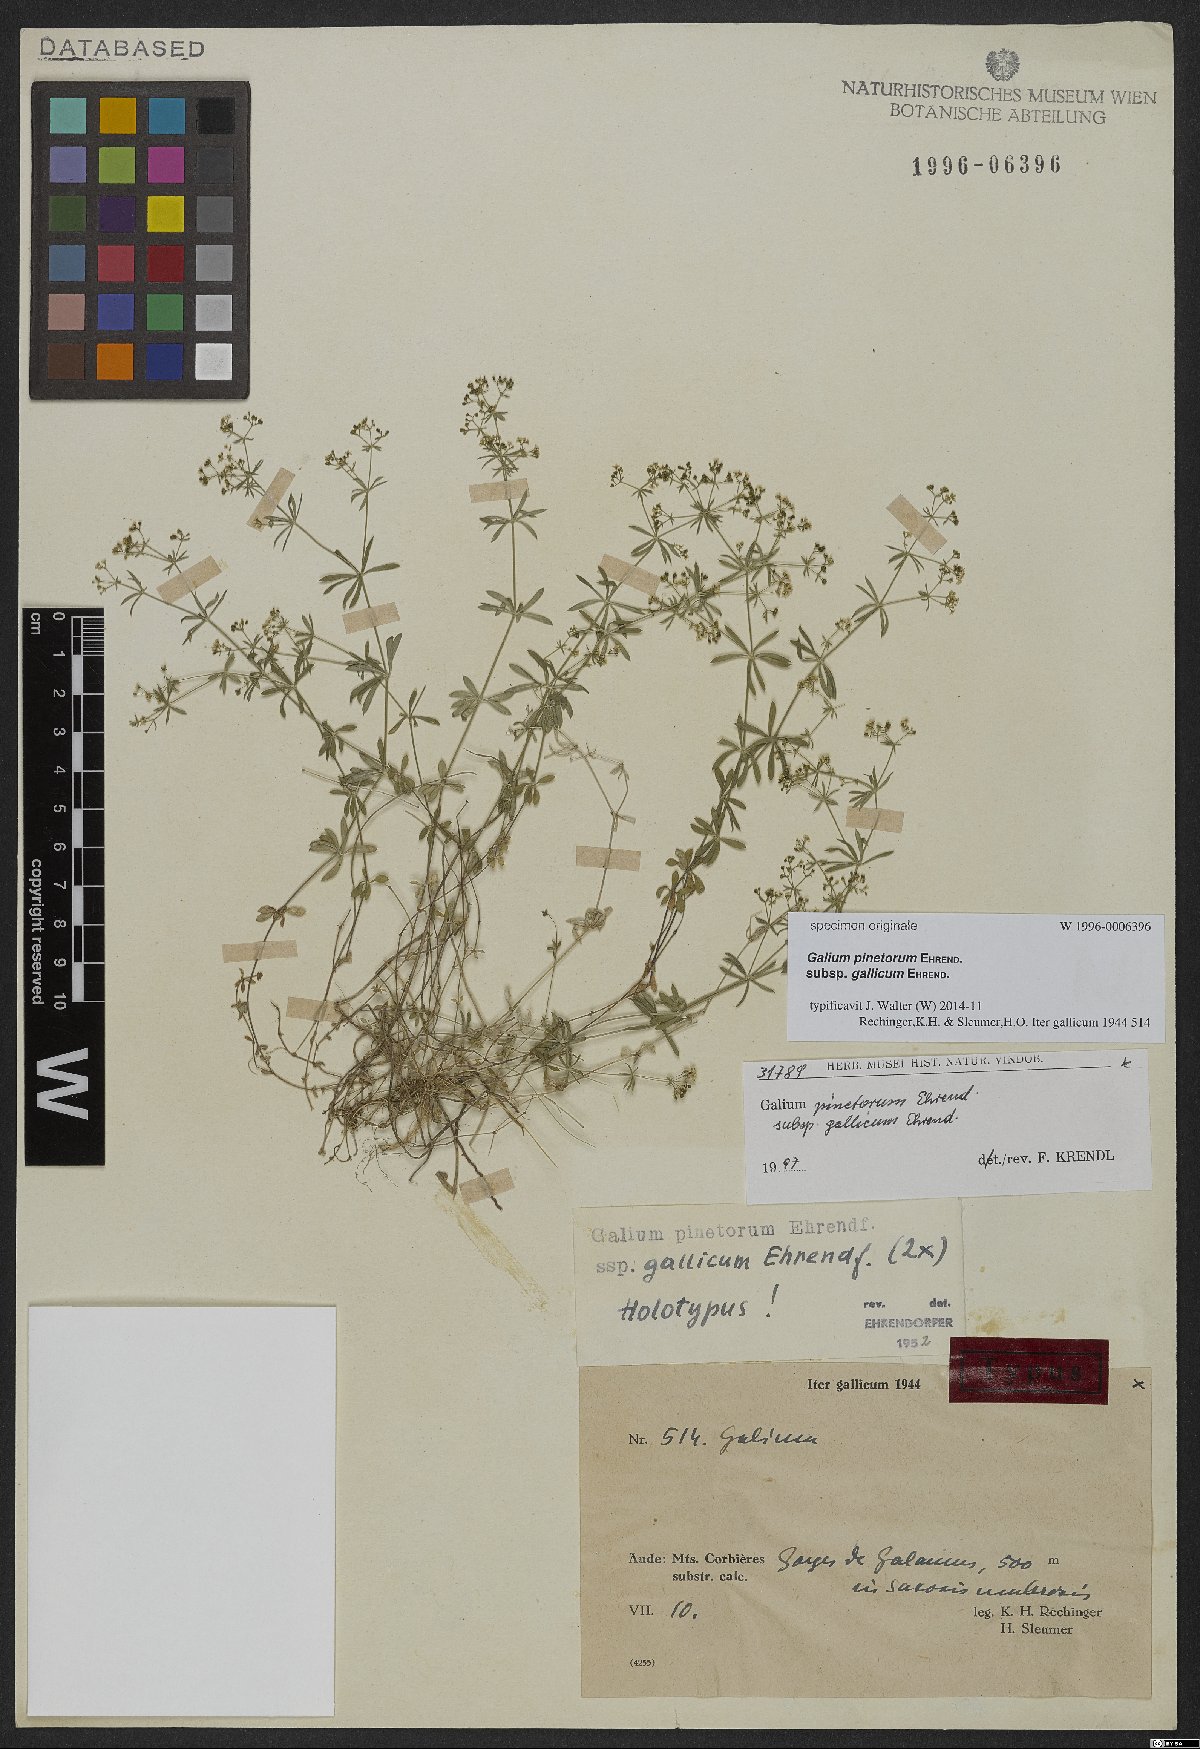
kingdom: Plantae
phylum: Tracheophyta
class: Magnoliopsida
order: Gentianales
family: Rubiaceae
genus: Galium
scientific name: Galium estebanii
